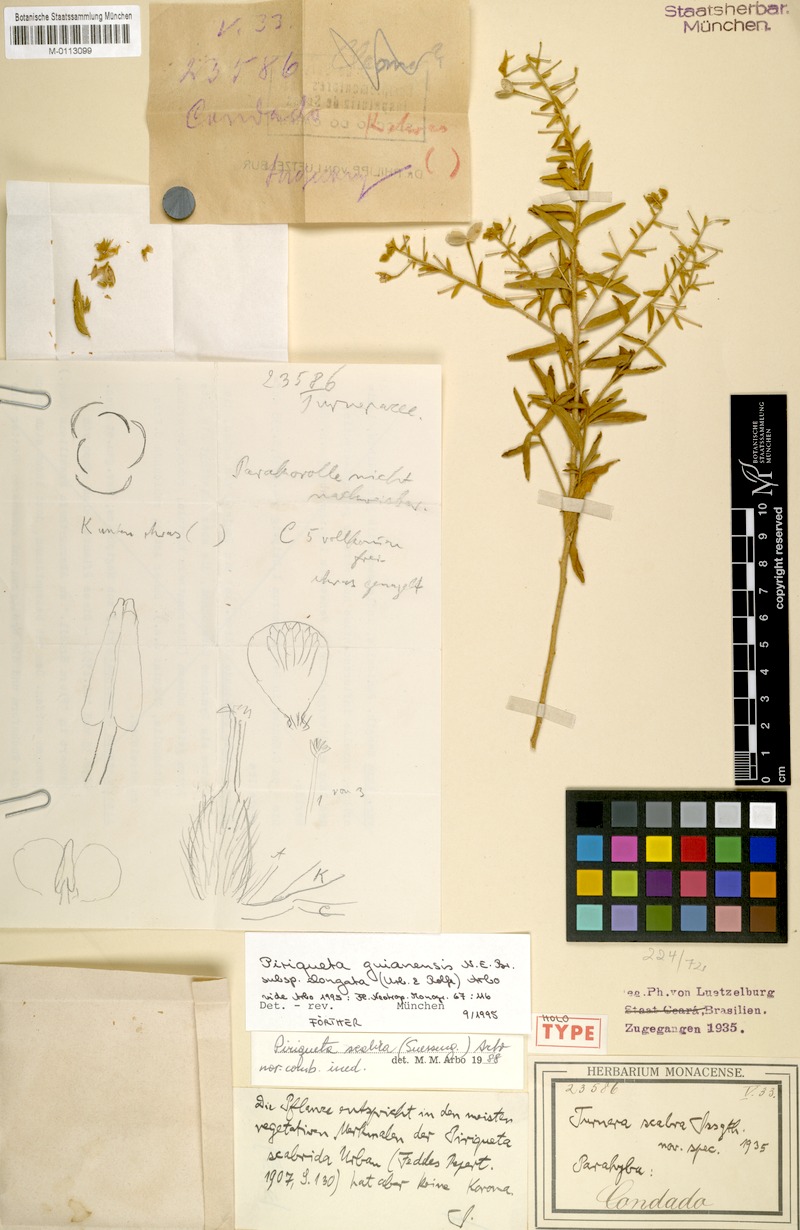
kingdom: Plantae
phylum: Tracheophyta
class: Magnoliopsida
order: Malpighiales
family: Turneraceae
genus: Piriqueta
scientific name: Piriqueta guianensis
